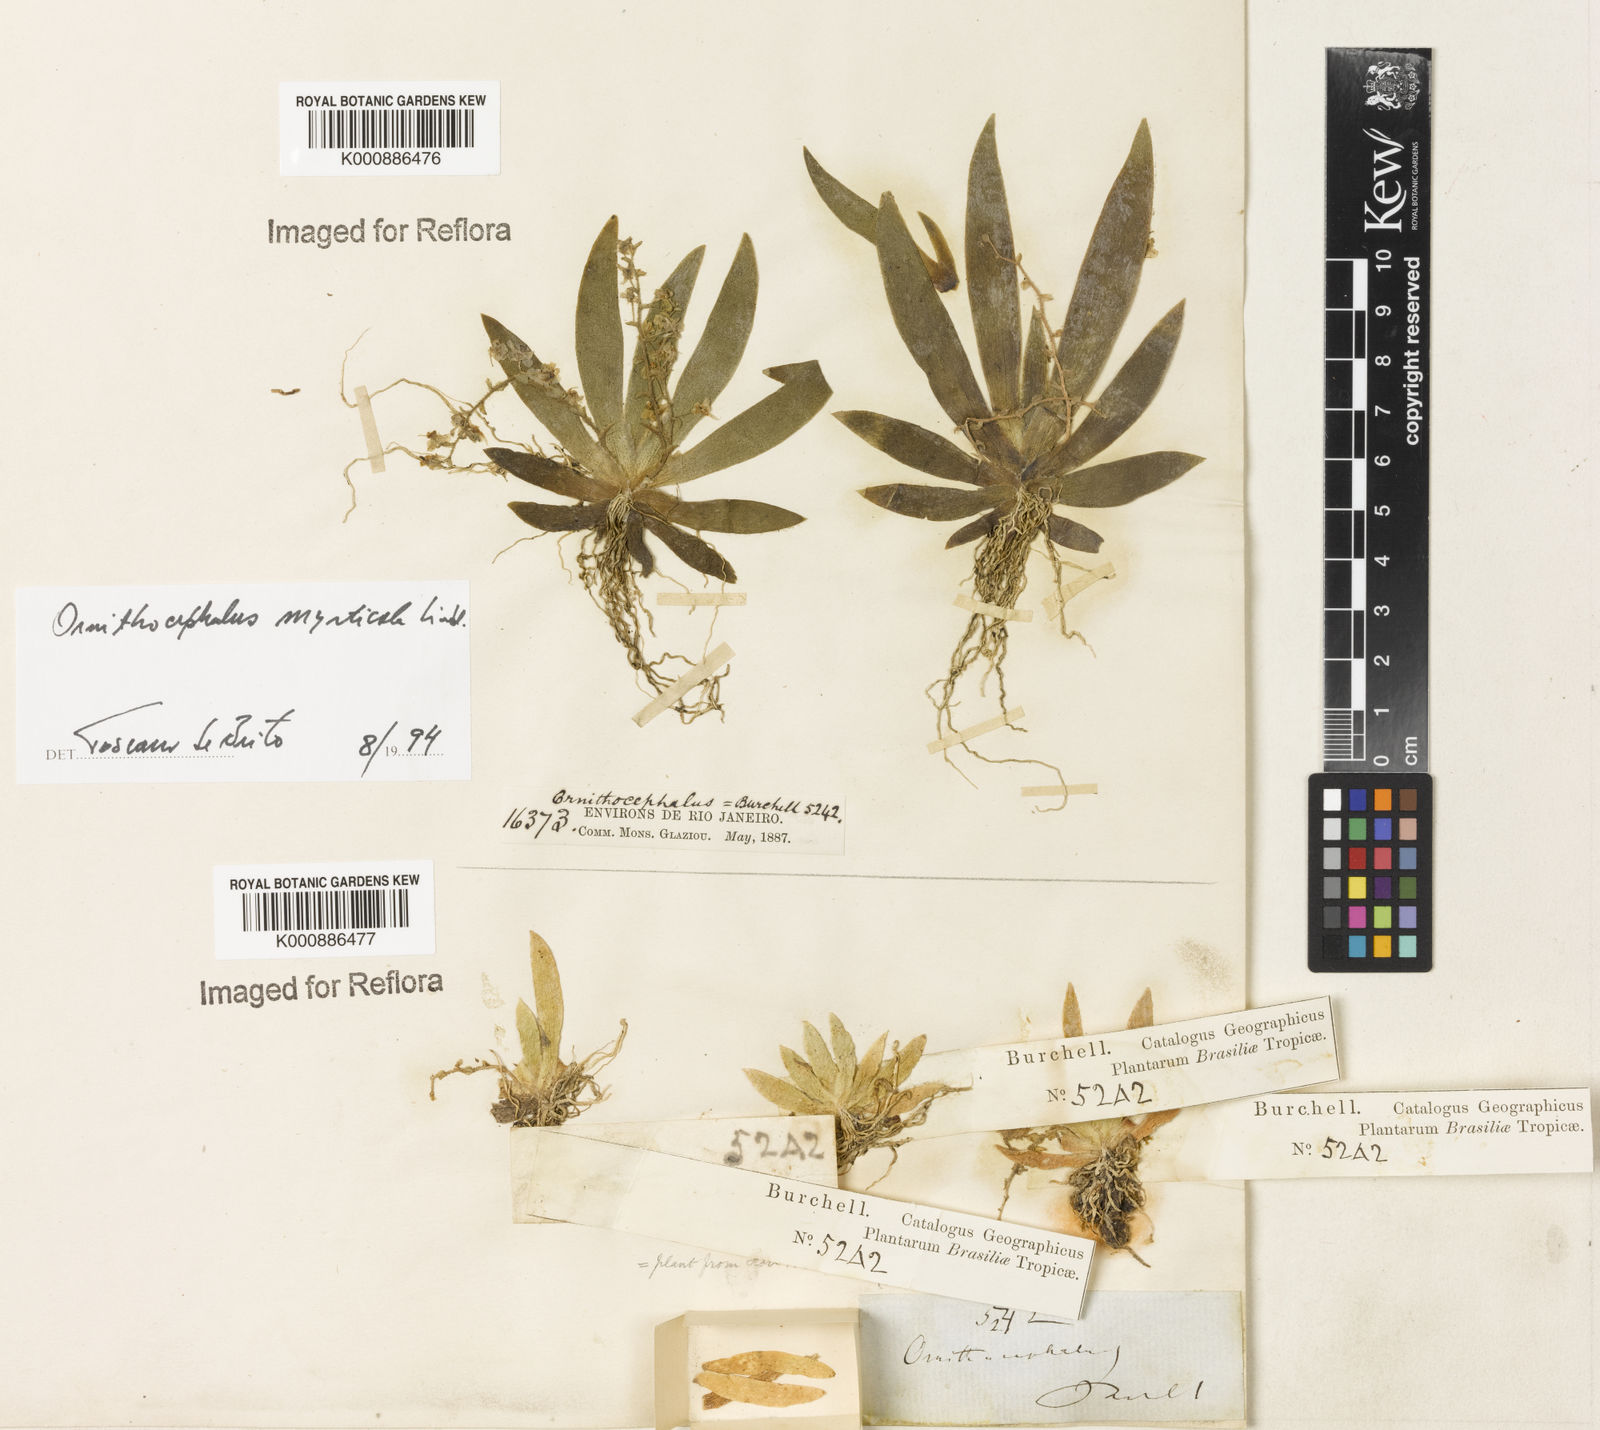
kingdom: Plantae
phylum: Tracheophyta
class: Liliopsida
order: Asparagales
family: Orchidaceae
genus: Ornithocephalus
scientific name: Ornithocephalus myrticola
